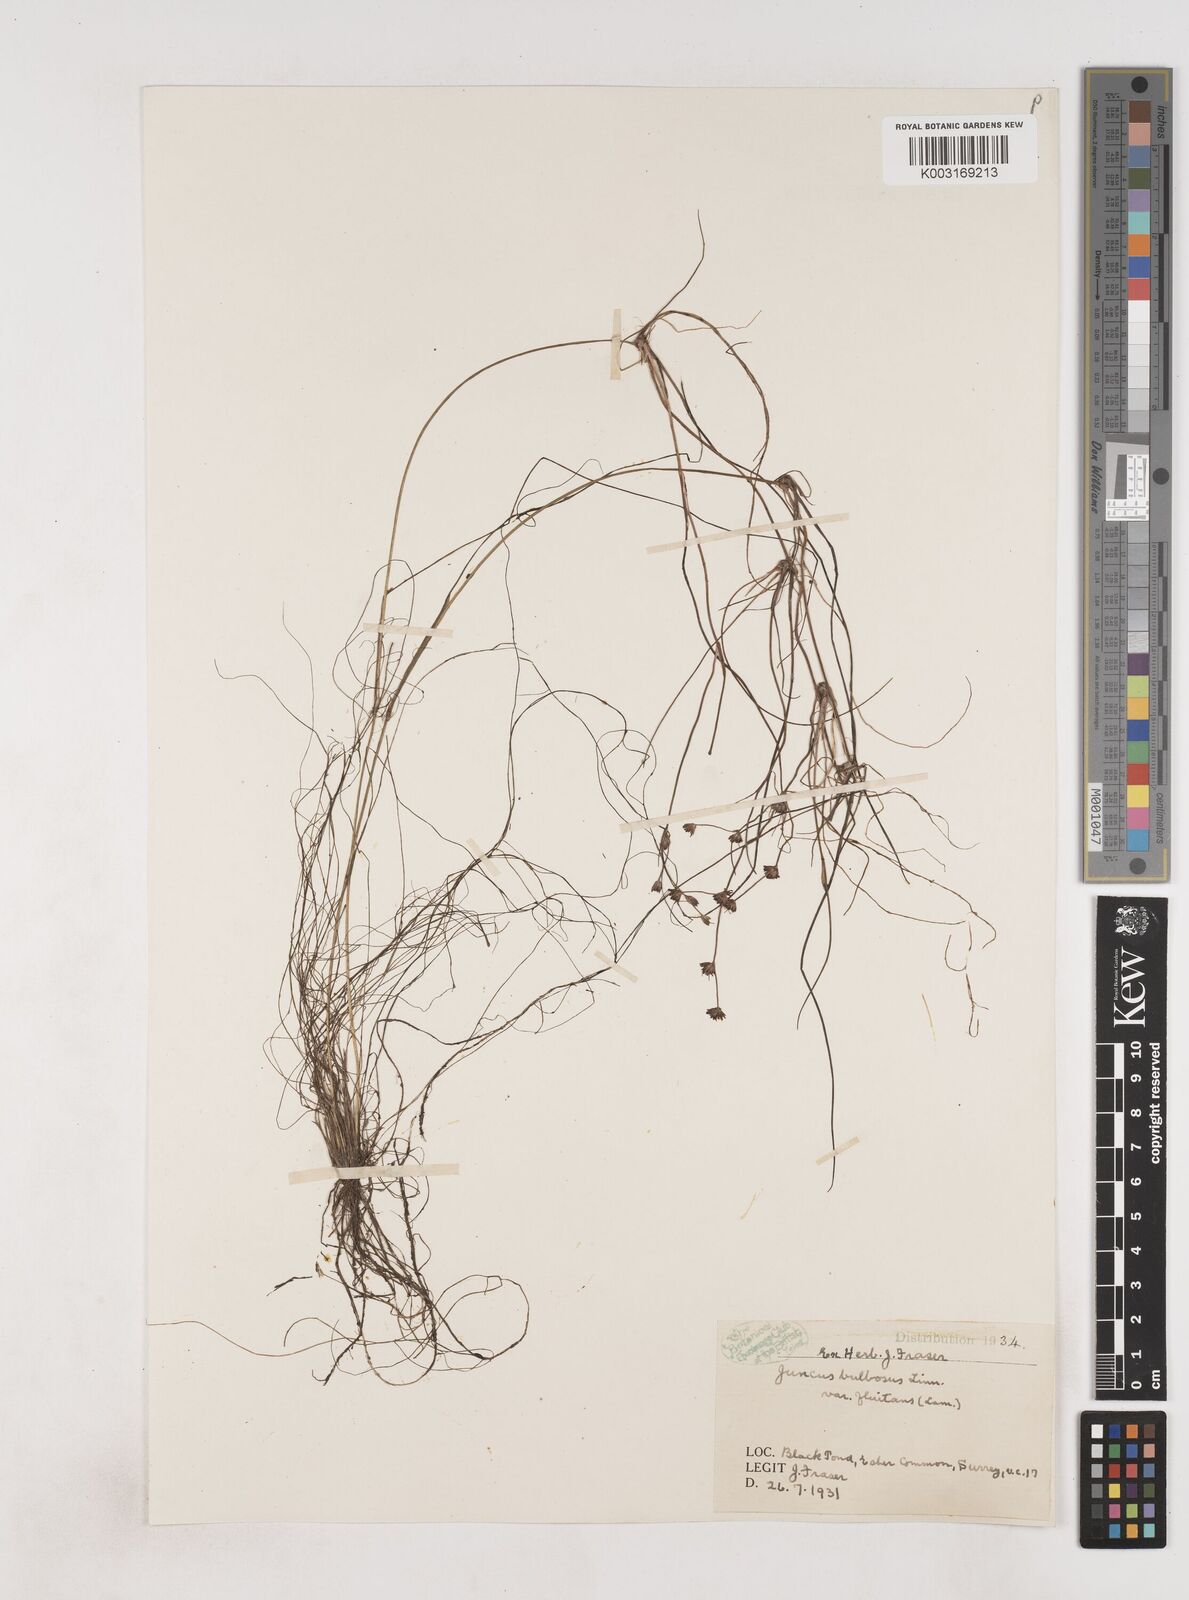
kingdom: Plantae
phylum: Tracheophyta
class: Liliopsida
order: Poales
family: Juncaceae
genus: Juncus
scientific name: Juncus bulbosus
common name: Bulbous rush
